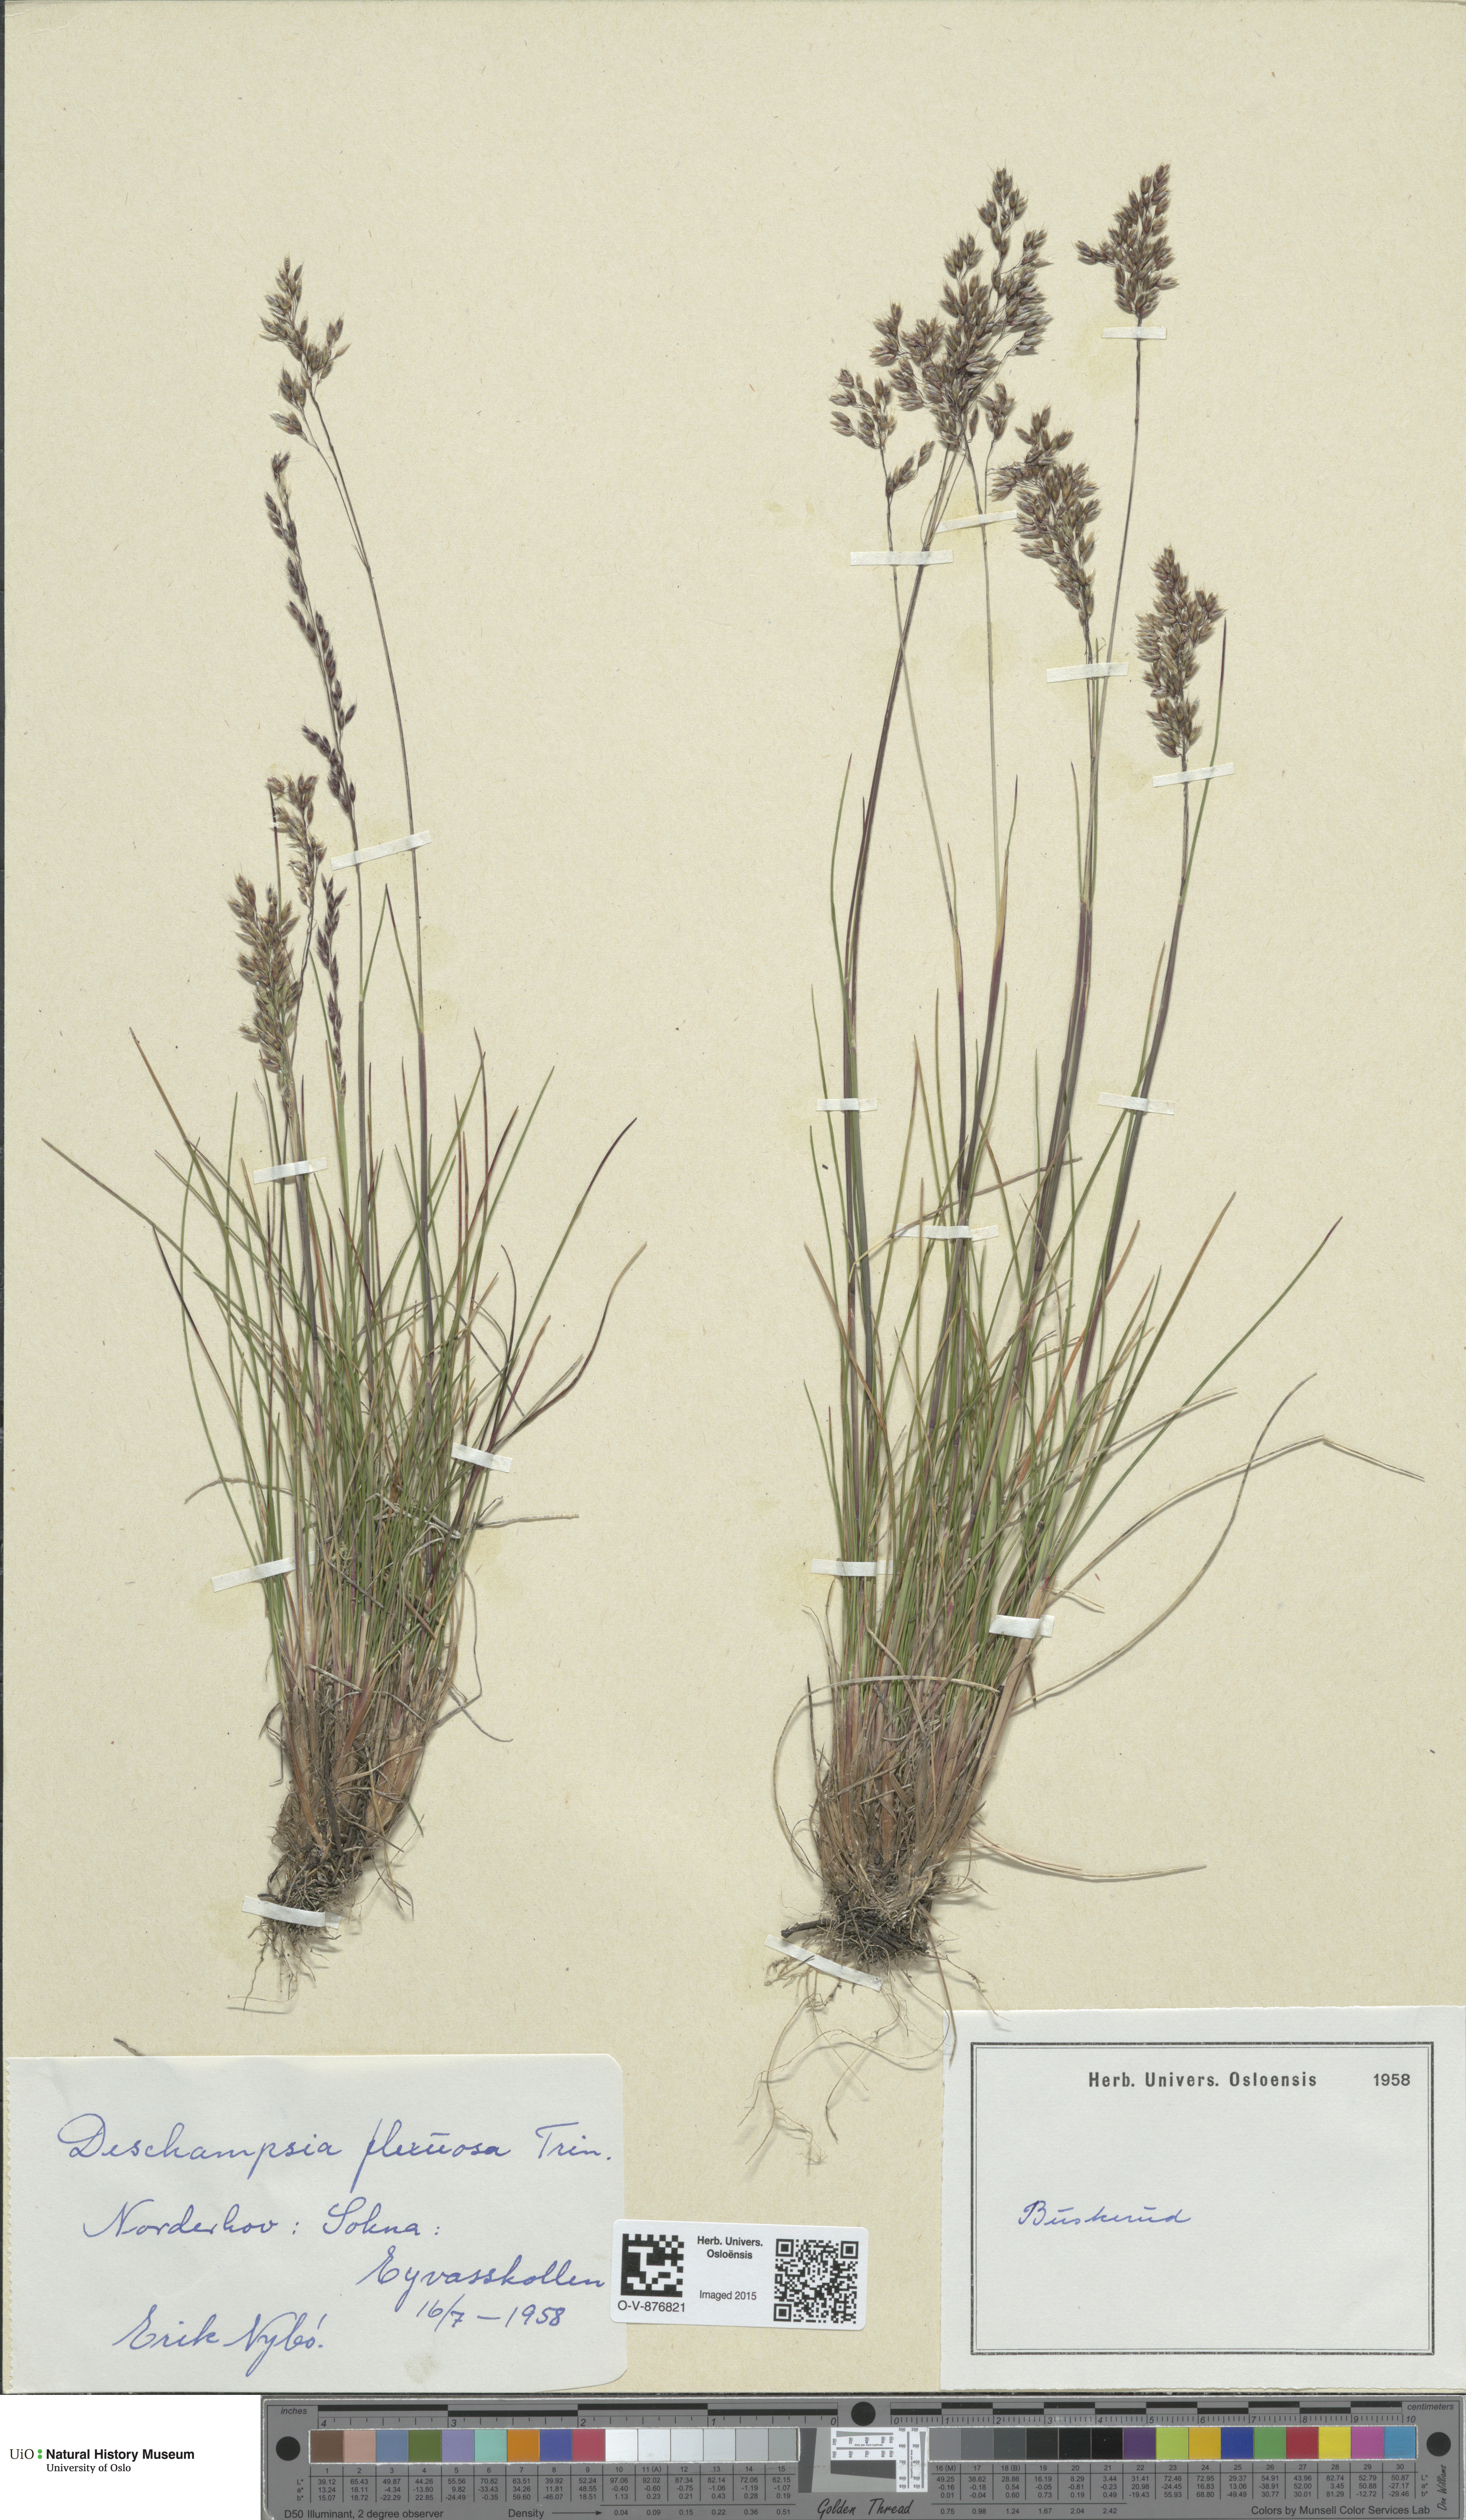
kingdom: Plantae
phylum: Tracheophyta
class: Liliopsida
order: Poales
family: Poaceae
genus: Avenella
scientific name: Avenella flexuosa
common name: Wavy hairgrass
